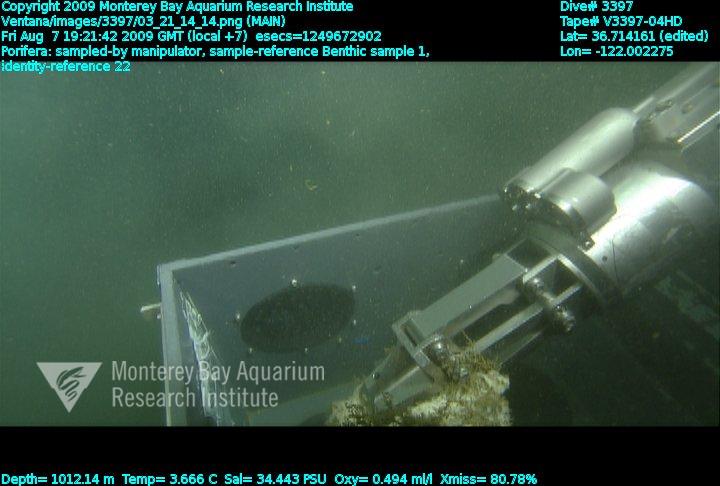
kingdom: Animalia
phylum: Porifera
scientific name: Porifera
